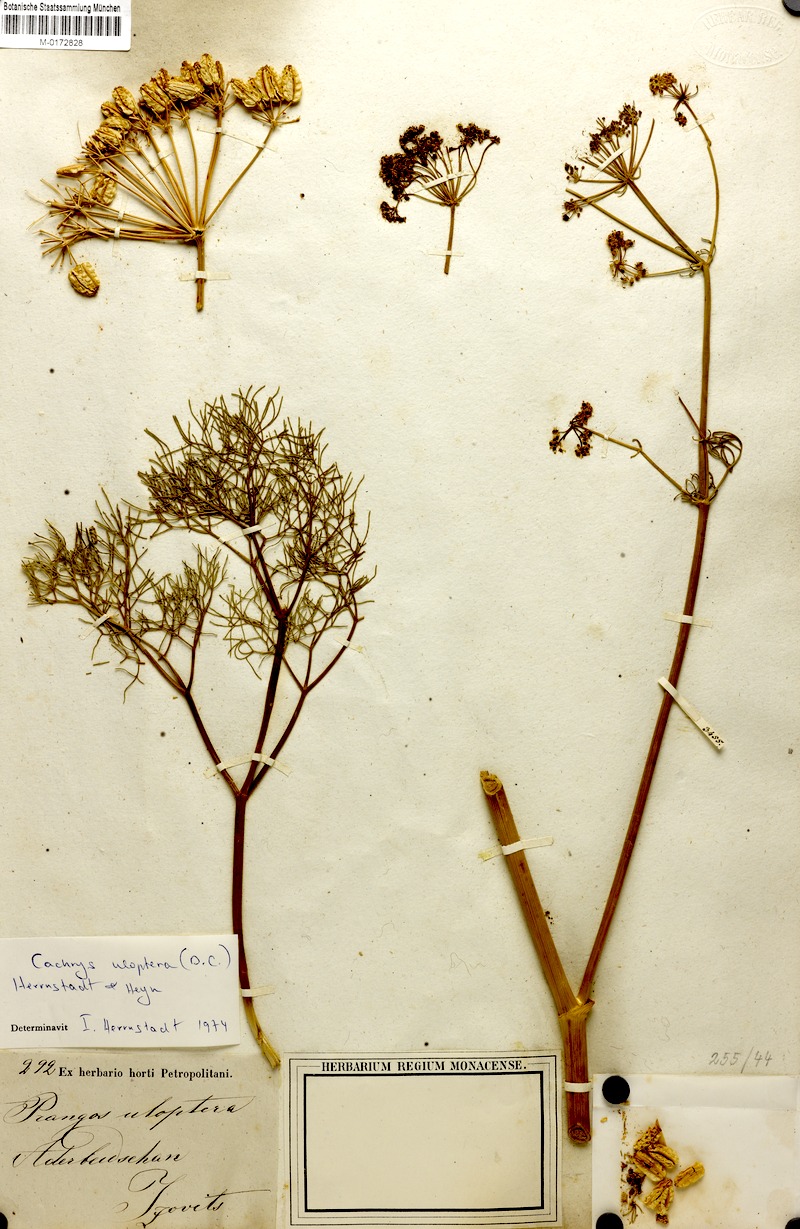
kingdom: Plantae
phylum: Tracheophyta
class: Magnoliopsida
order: Apiales
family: Apiaceae
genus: Prangos
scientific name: Prangos uloptera
